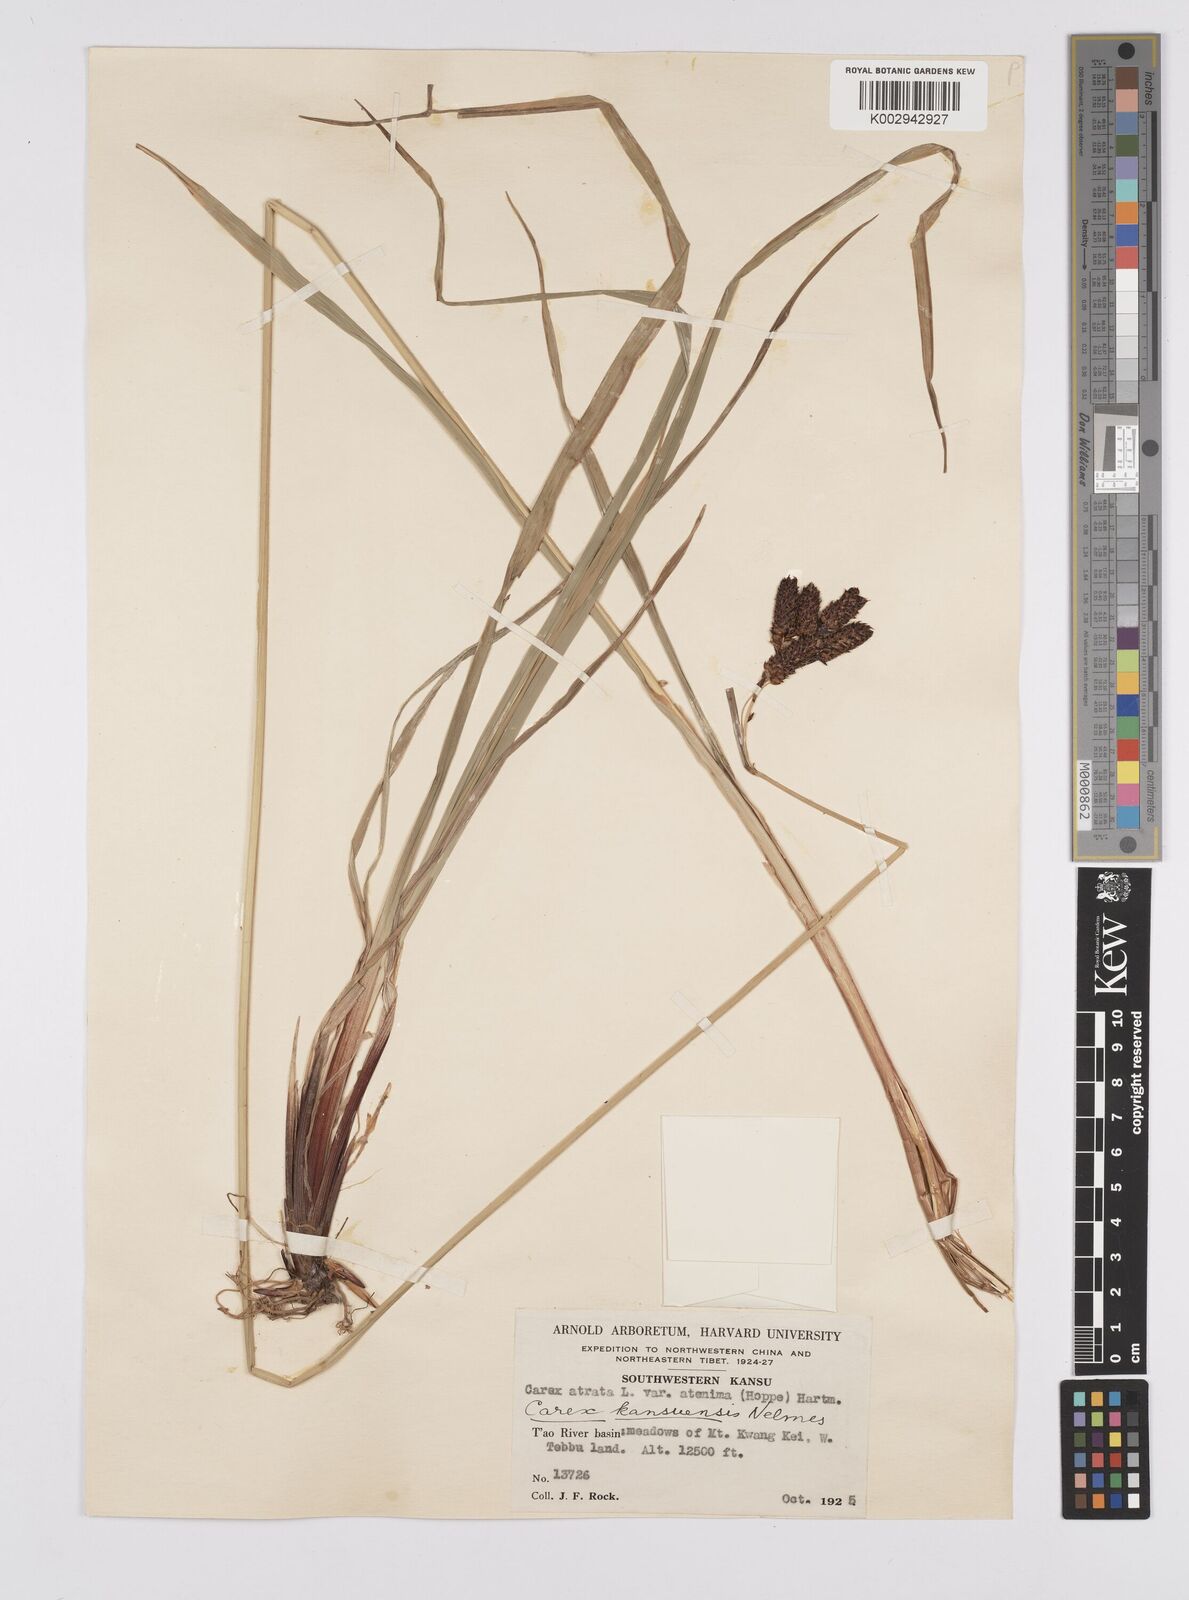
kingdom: Plantae
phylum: Tracheophyta
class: Liliopsida
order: Poales
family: Cyperaceae
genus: Carex
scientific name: Carex kansuensis
